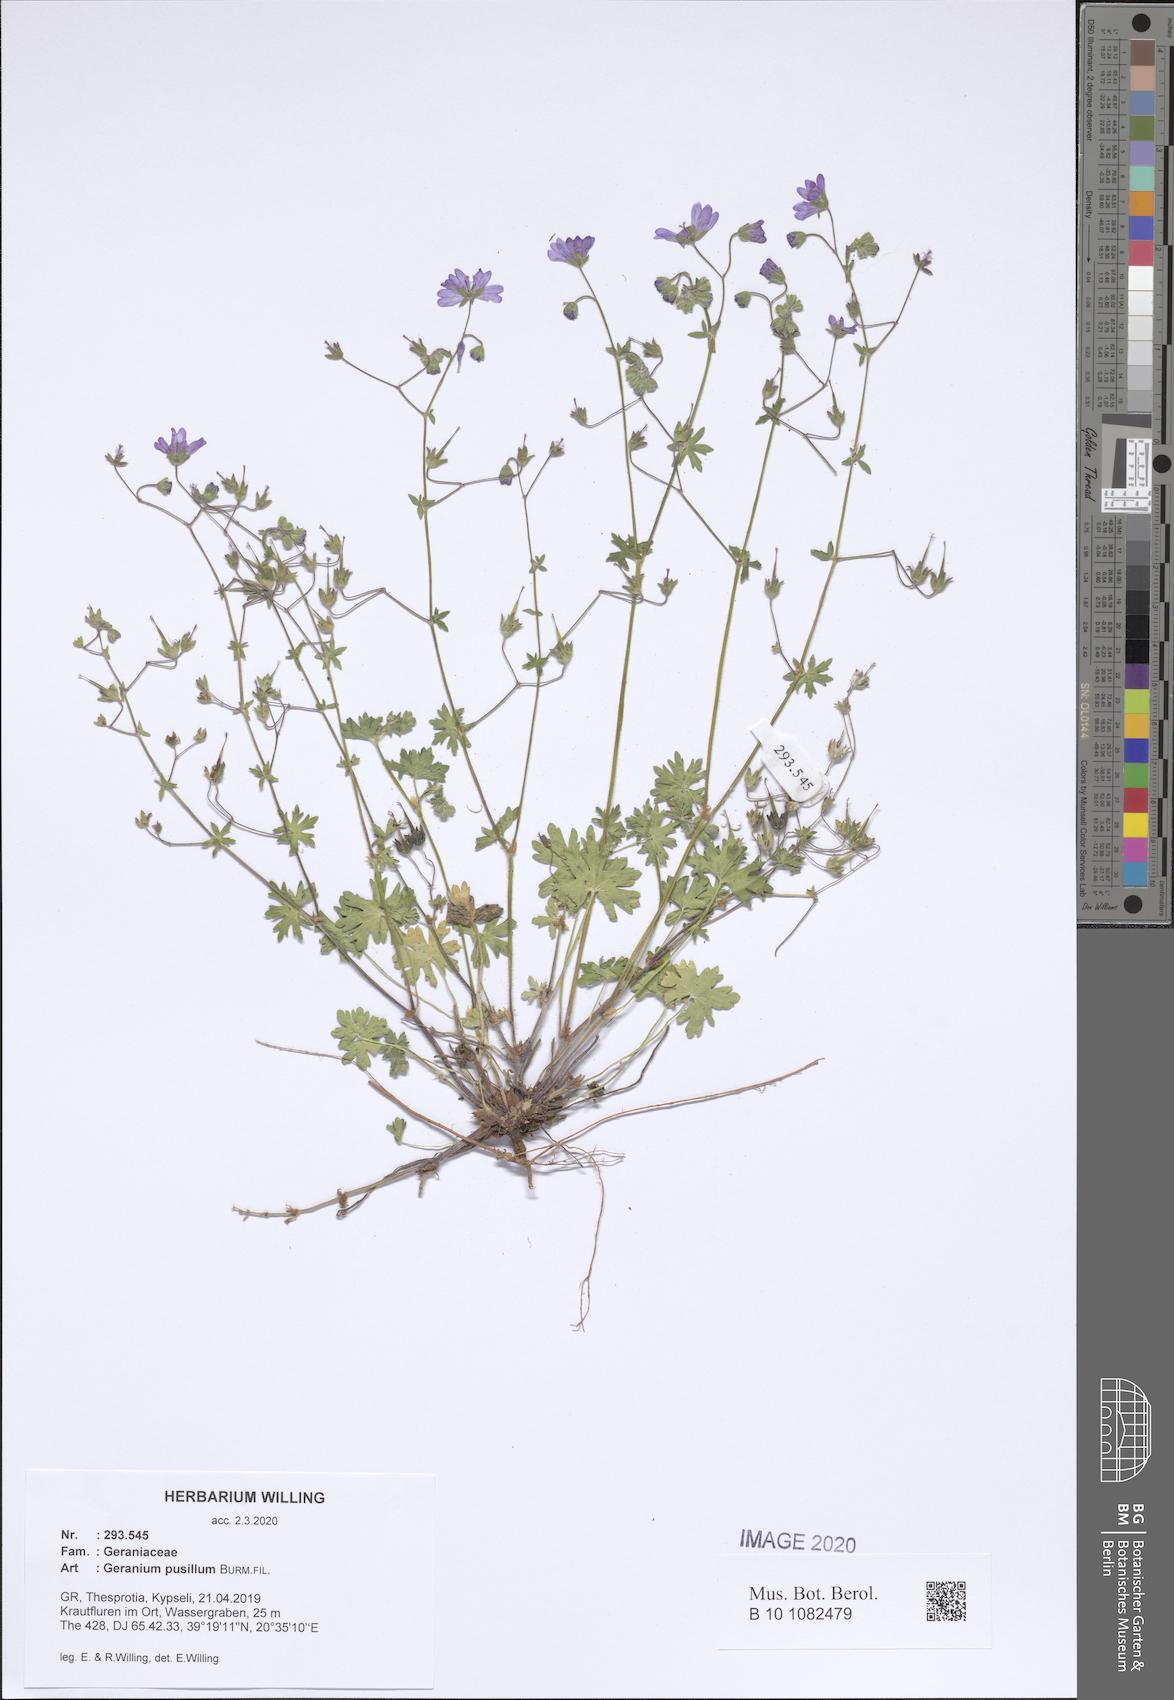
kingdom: Plantae
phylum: Tracheophyta
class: Magnoliopsida
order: Geraniales
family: Geraniaceae
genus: Geranium
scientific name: Geranium pusillum
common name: Small geranium
